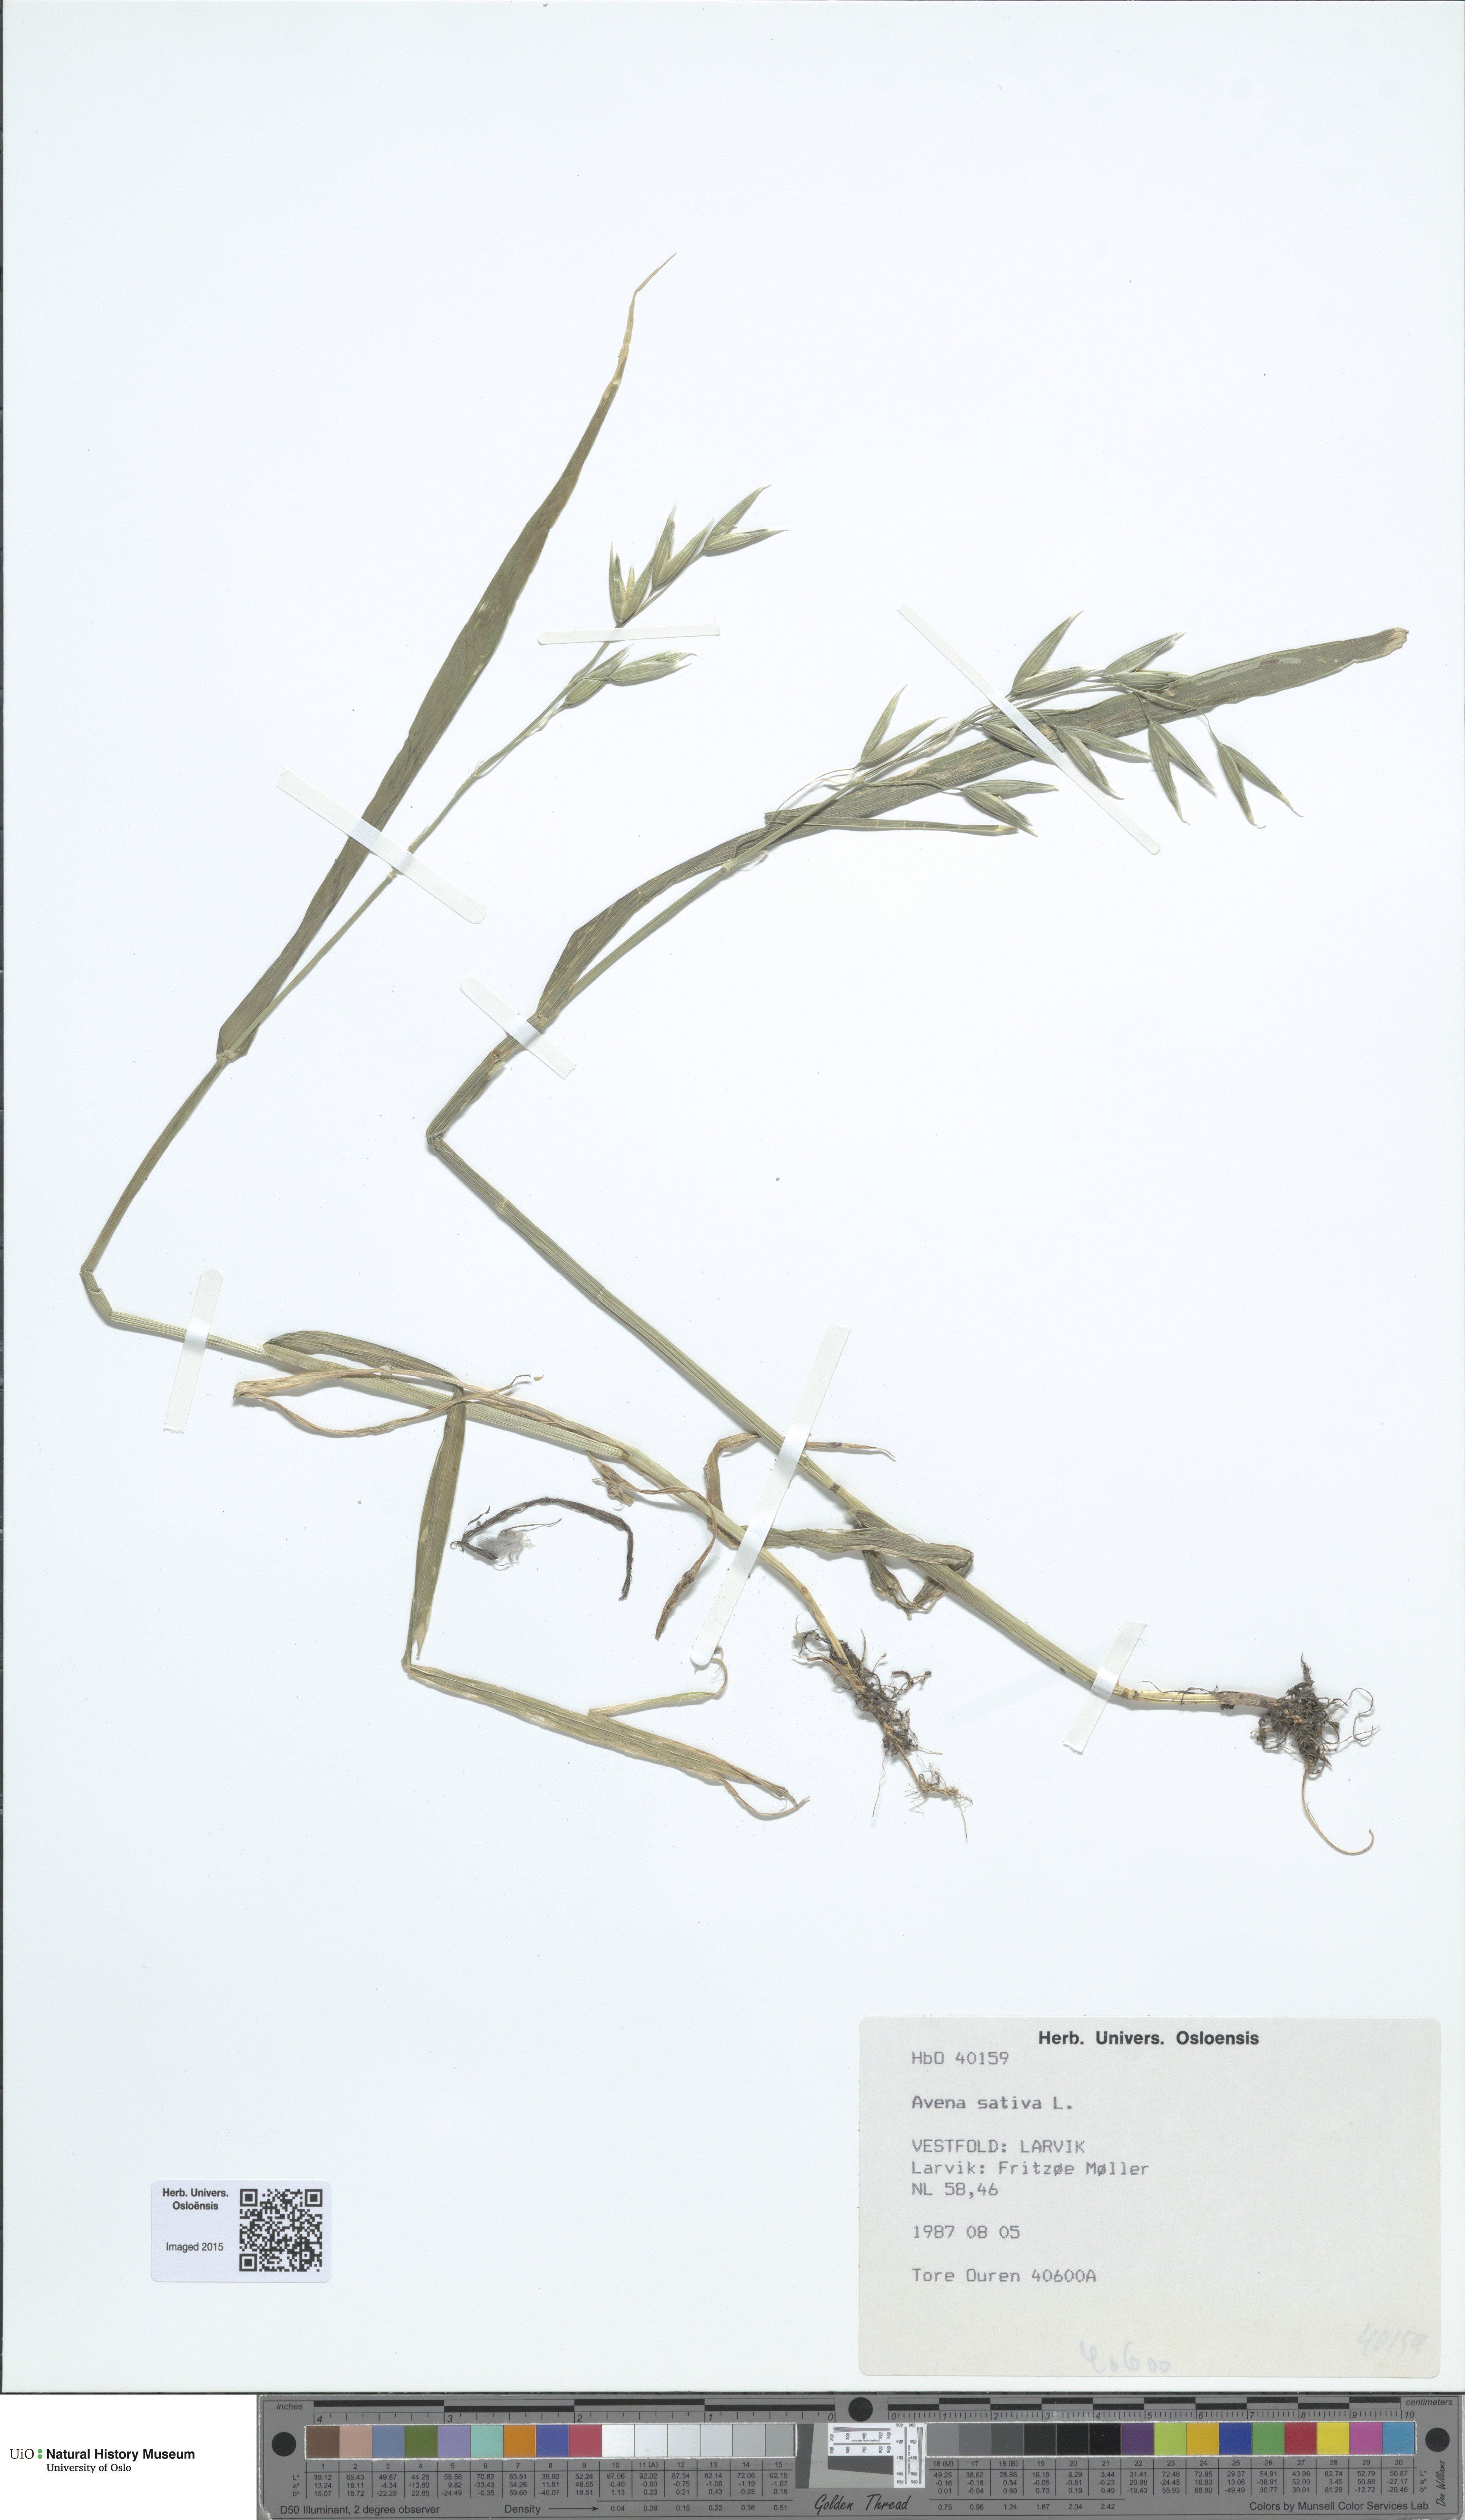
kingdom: Plantae
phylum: Tracheophyta
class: Liliopsida
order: Poales
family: Poaceae
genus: Avena
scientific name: Avena sativa
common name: Oat
